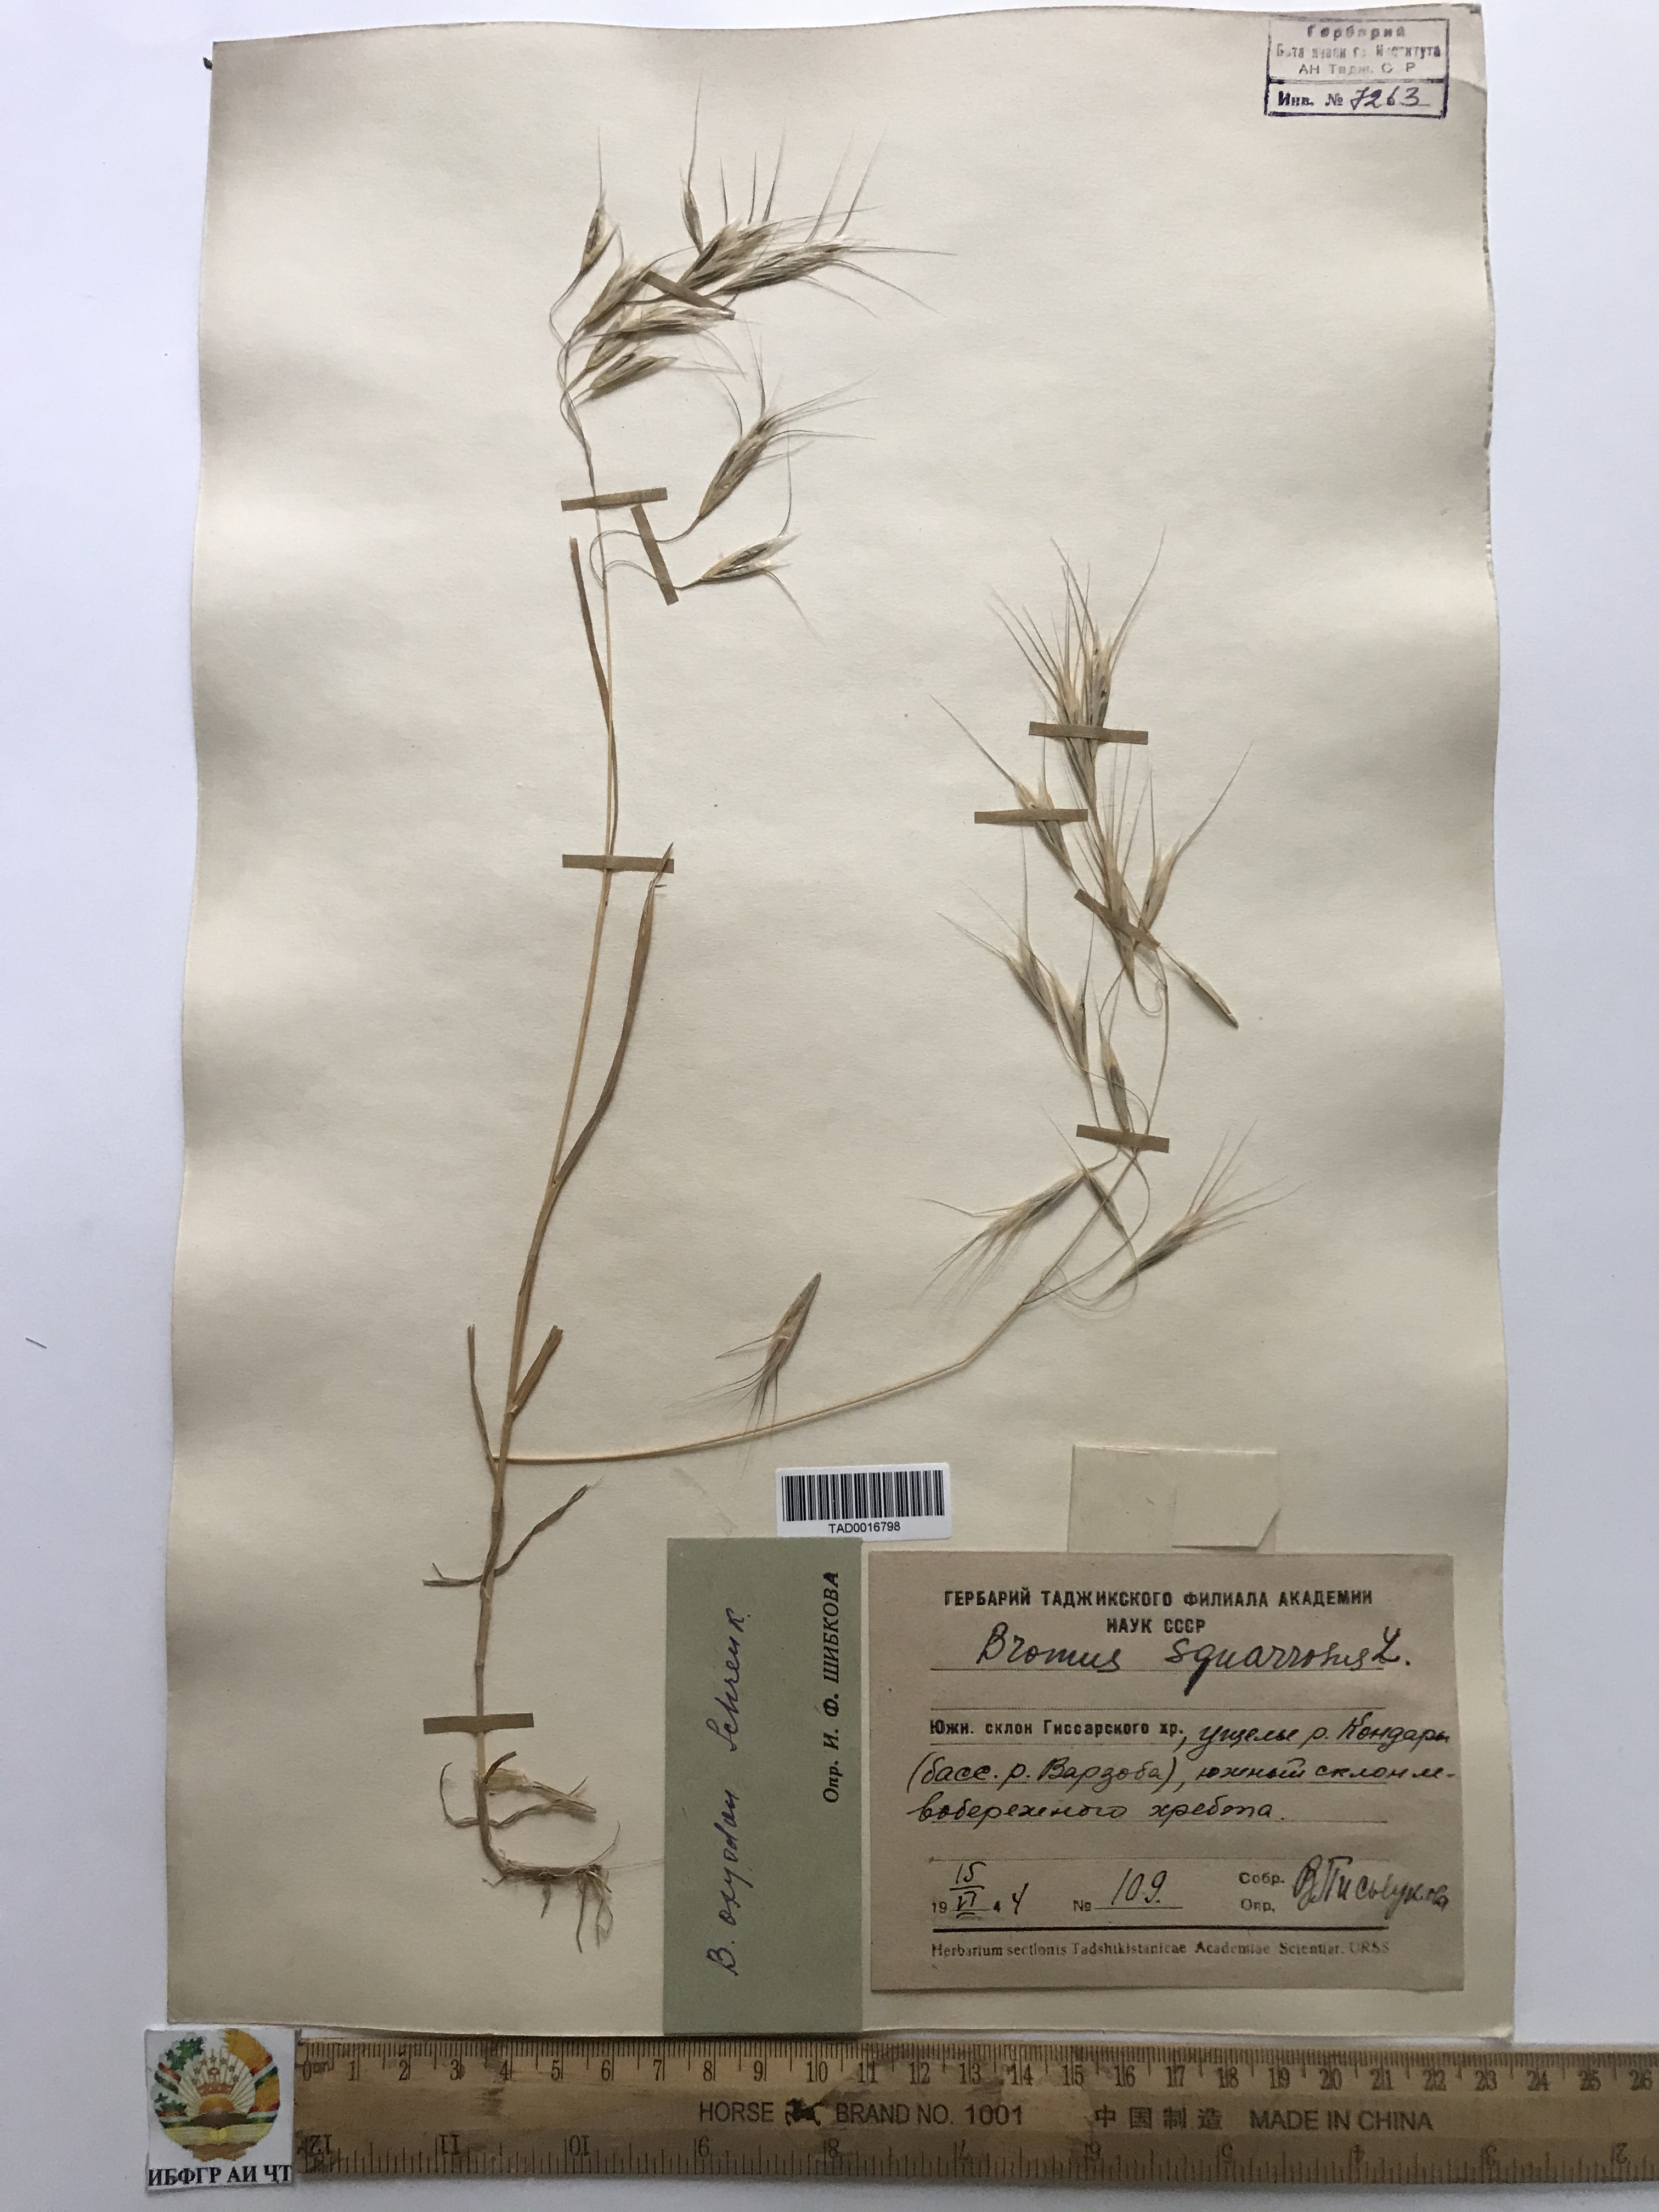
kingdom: Plantae
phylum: Tracheophyta
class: Liliopsida
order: Poales
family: Poaceae
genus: Bromus
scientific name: Bromus oxyodon
